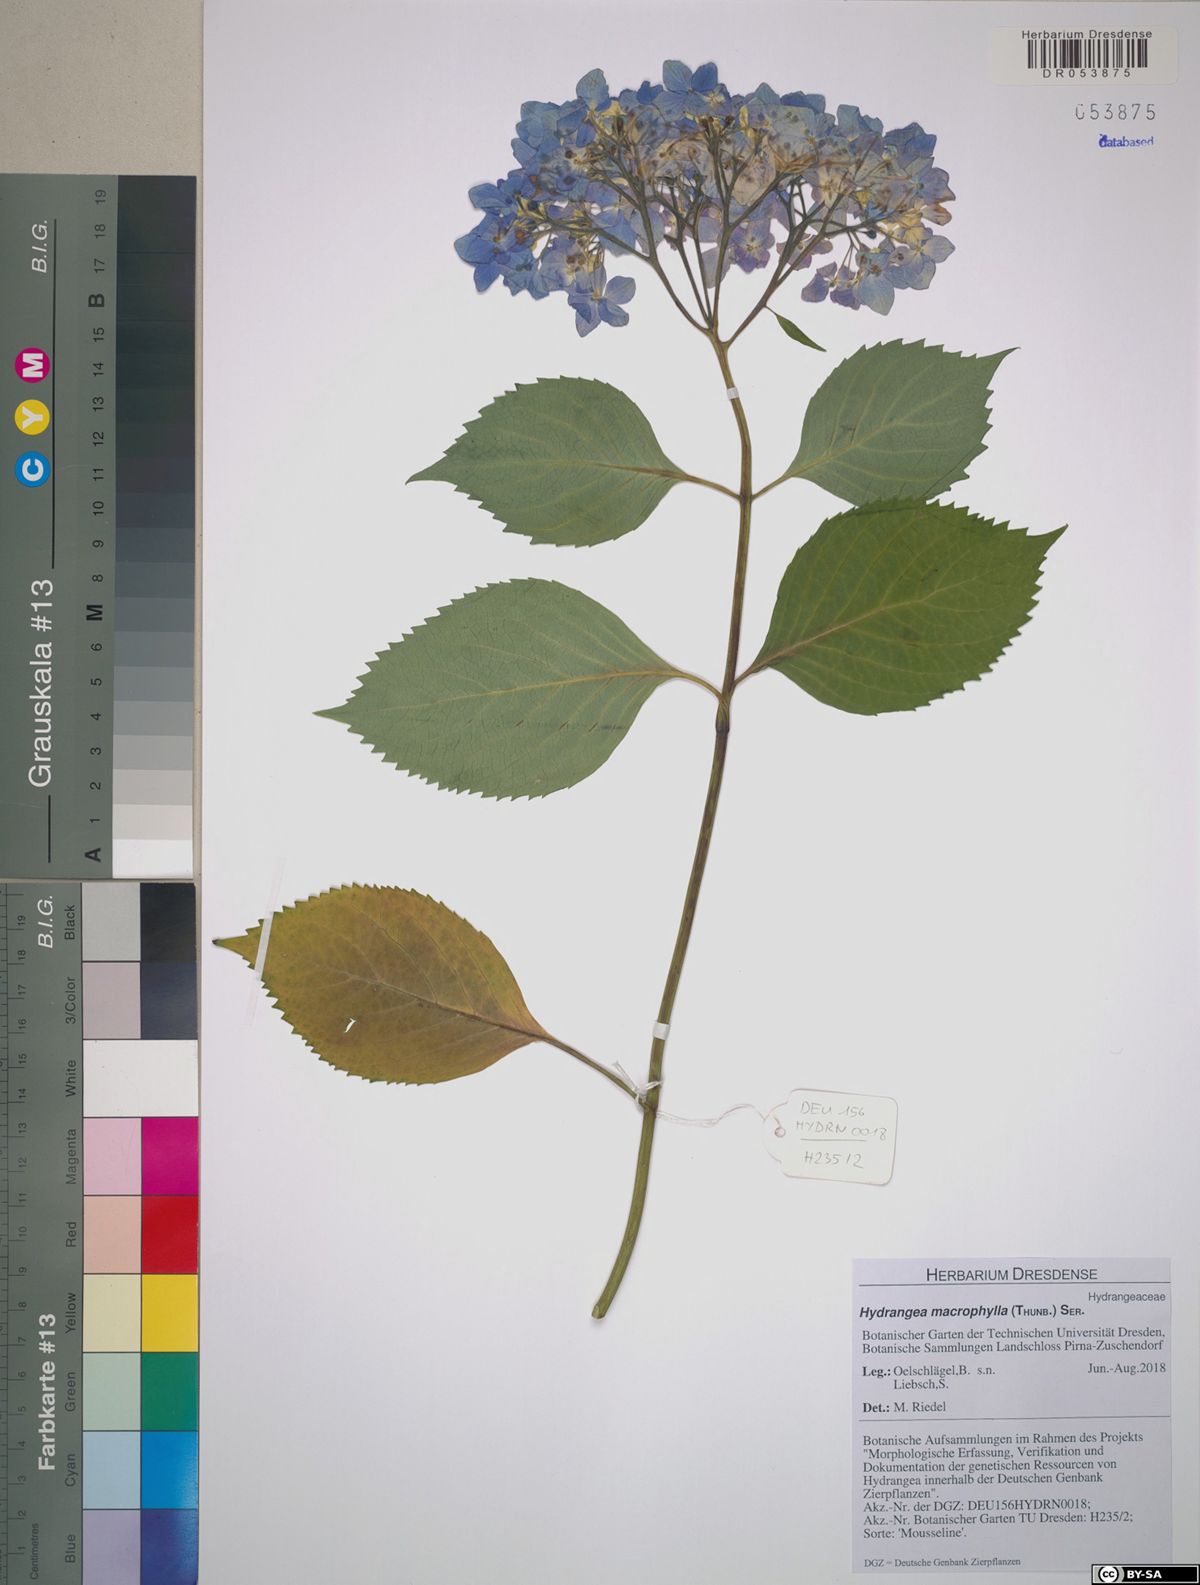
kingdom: Plantae
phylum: Tracheophyta
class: Magnoliopsida
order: Cornales
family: Hydrangeaceae
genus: Hydrangea
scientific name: Hydrangea macrophylla
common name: Hydrangea
